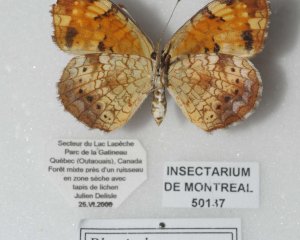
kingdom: Animalia
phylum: Arthropoda
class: Insecta
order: Lepidoptera
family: Nymphalidae
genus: Phyciodes
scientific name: Phyciodes tharos
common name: Northern Crescent
